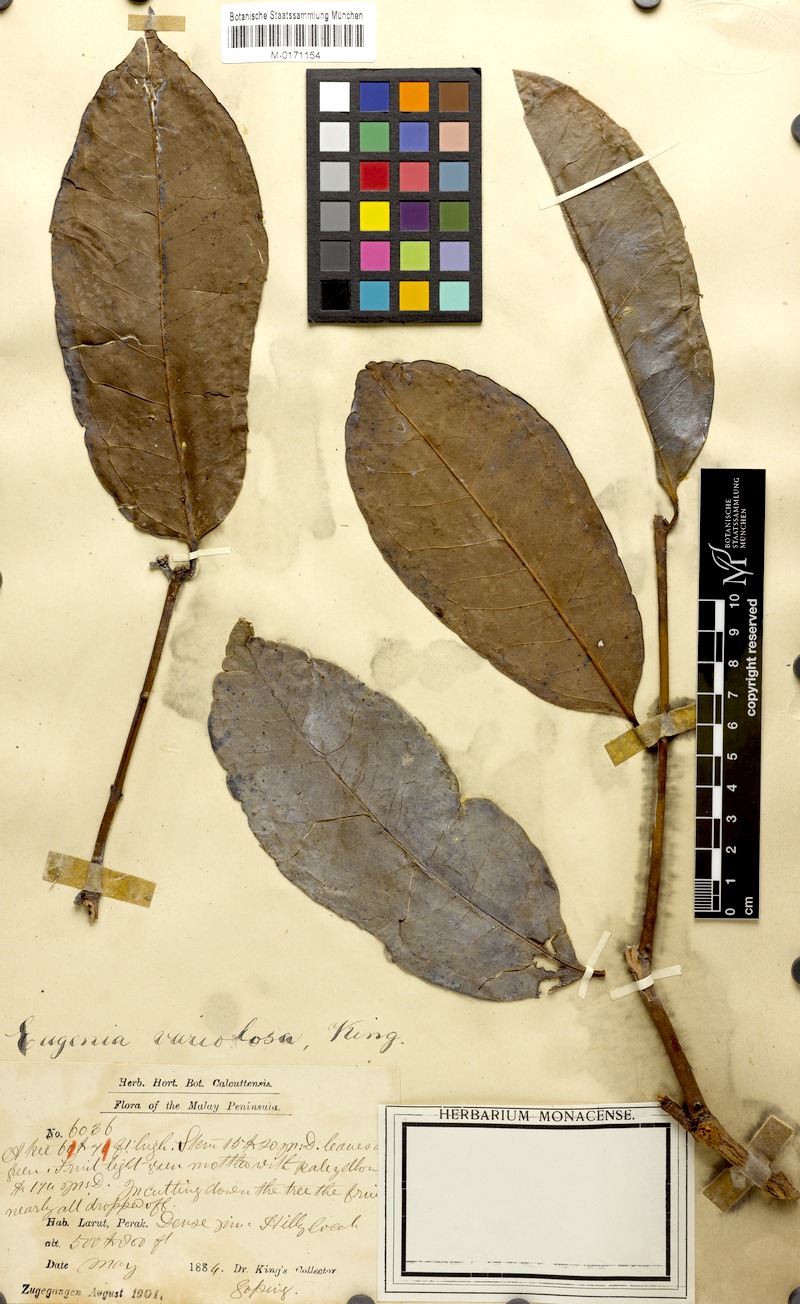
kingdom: Plantae
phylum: Tracheophyta
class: Magnoliopsida
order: Myrtales
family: Myrtaceae
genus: Syzygium
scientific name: Syzygium variolosum
